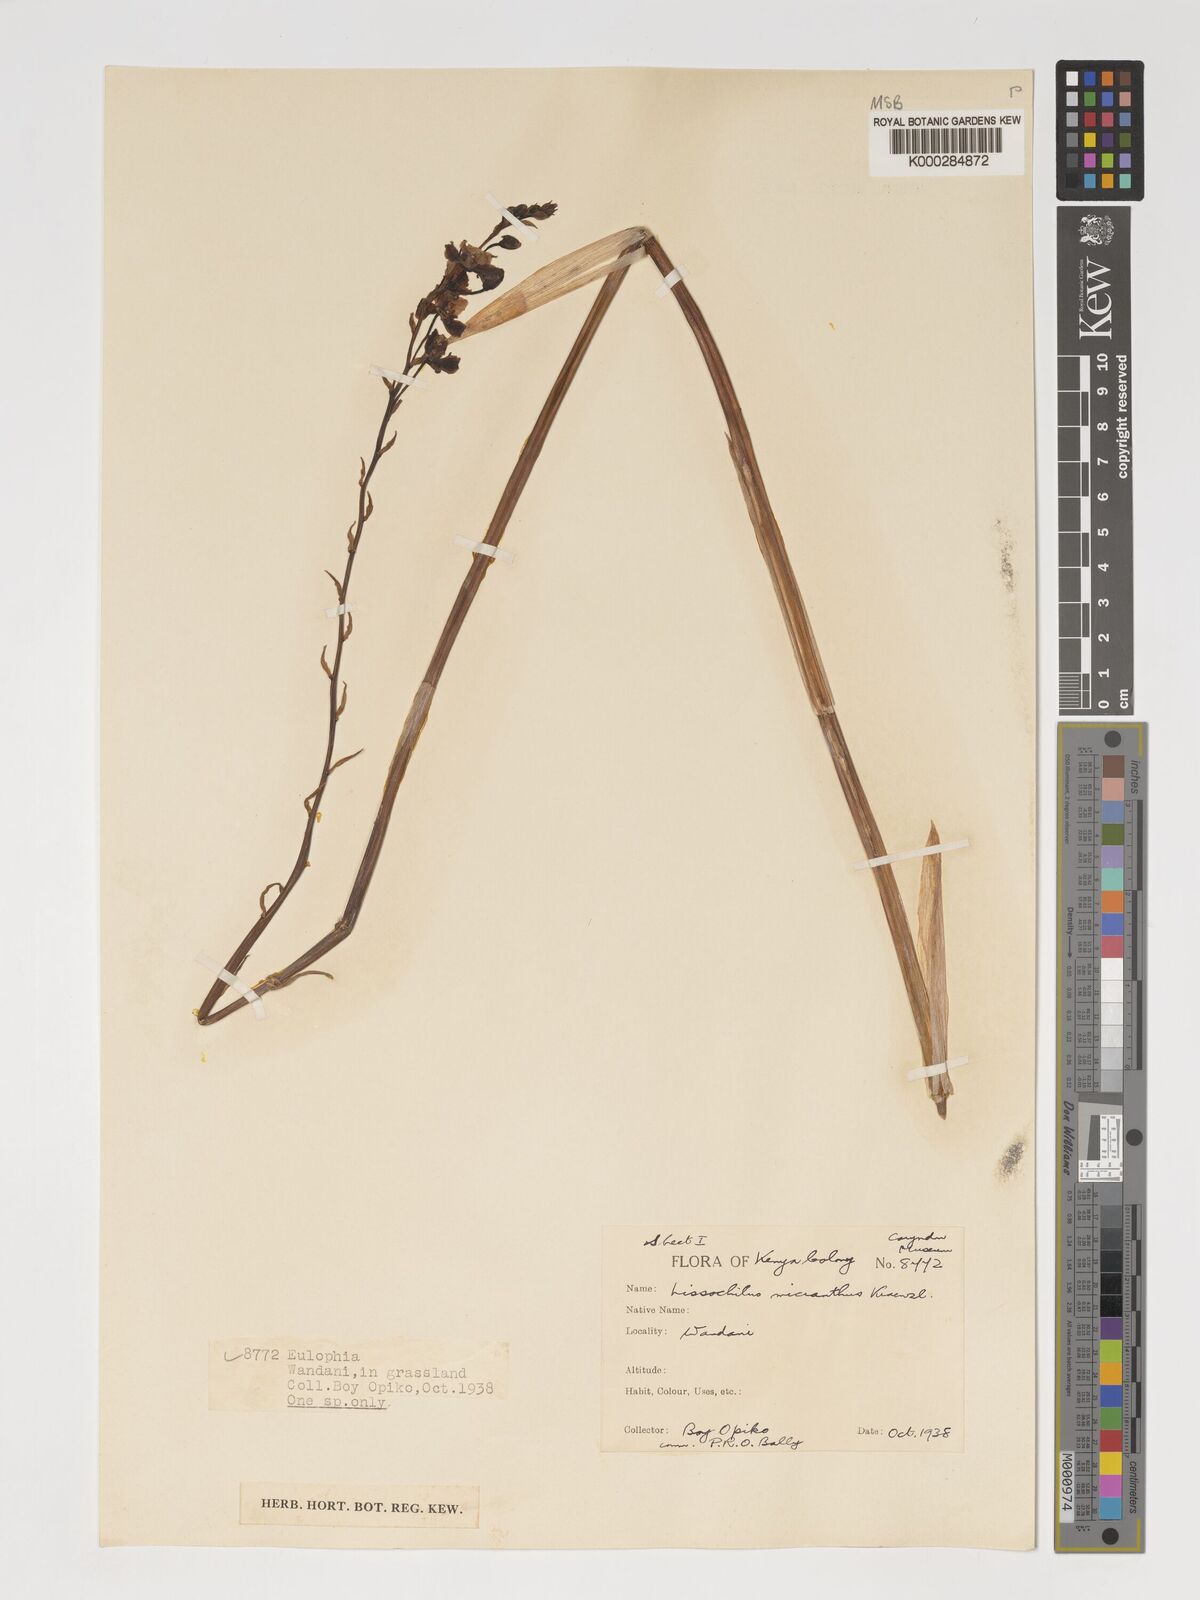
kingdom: Plantae
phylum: Tracheophyta
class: Liliopsida
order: Asparagales
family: Orchidaceae
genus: Eulophia
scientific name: Eulophia streptopetala
